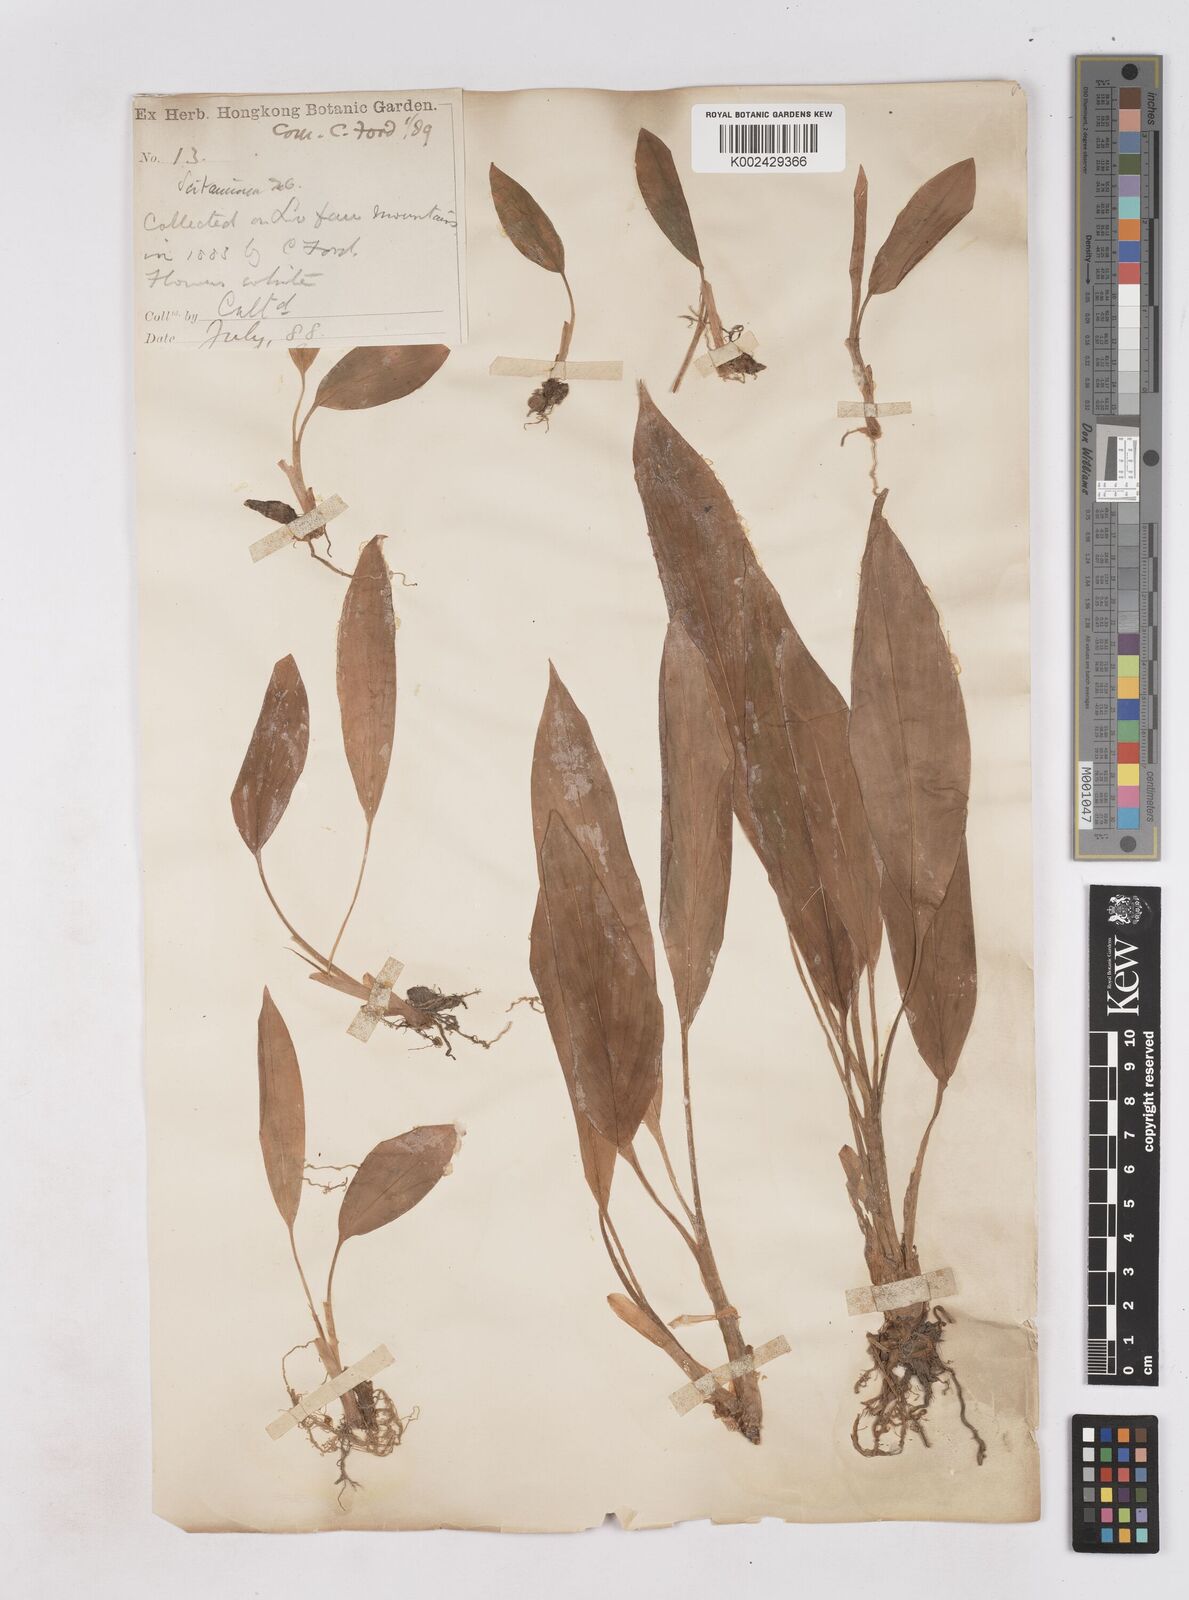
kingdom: Plantae
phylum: Tracheophyta
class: Liliopsida
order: Zingiberales
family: Zingiberaceae
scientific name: Zingiberaceae
